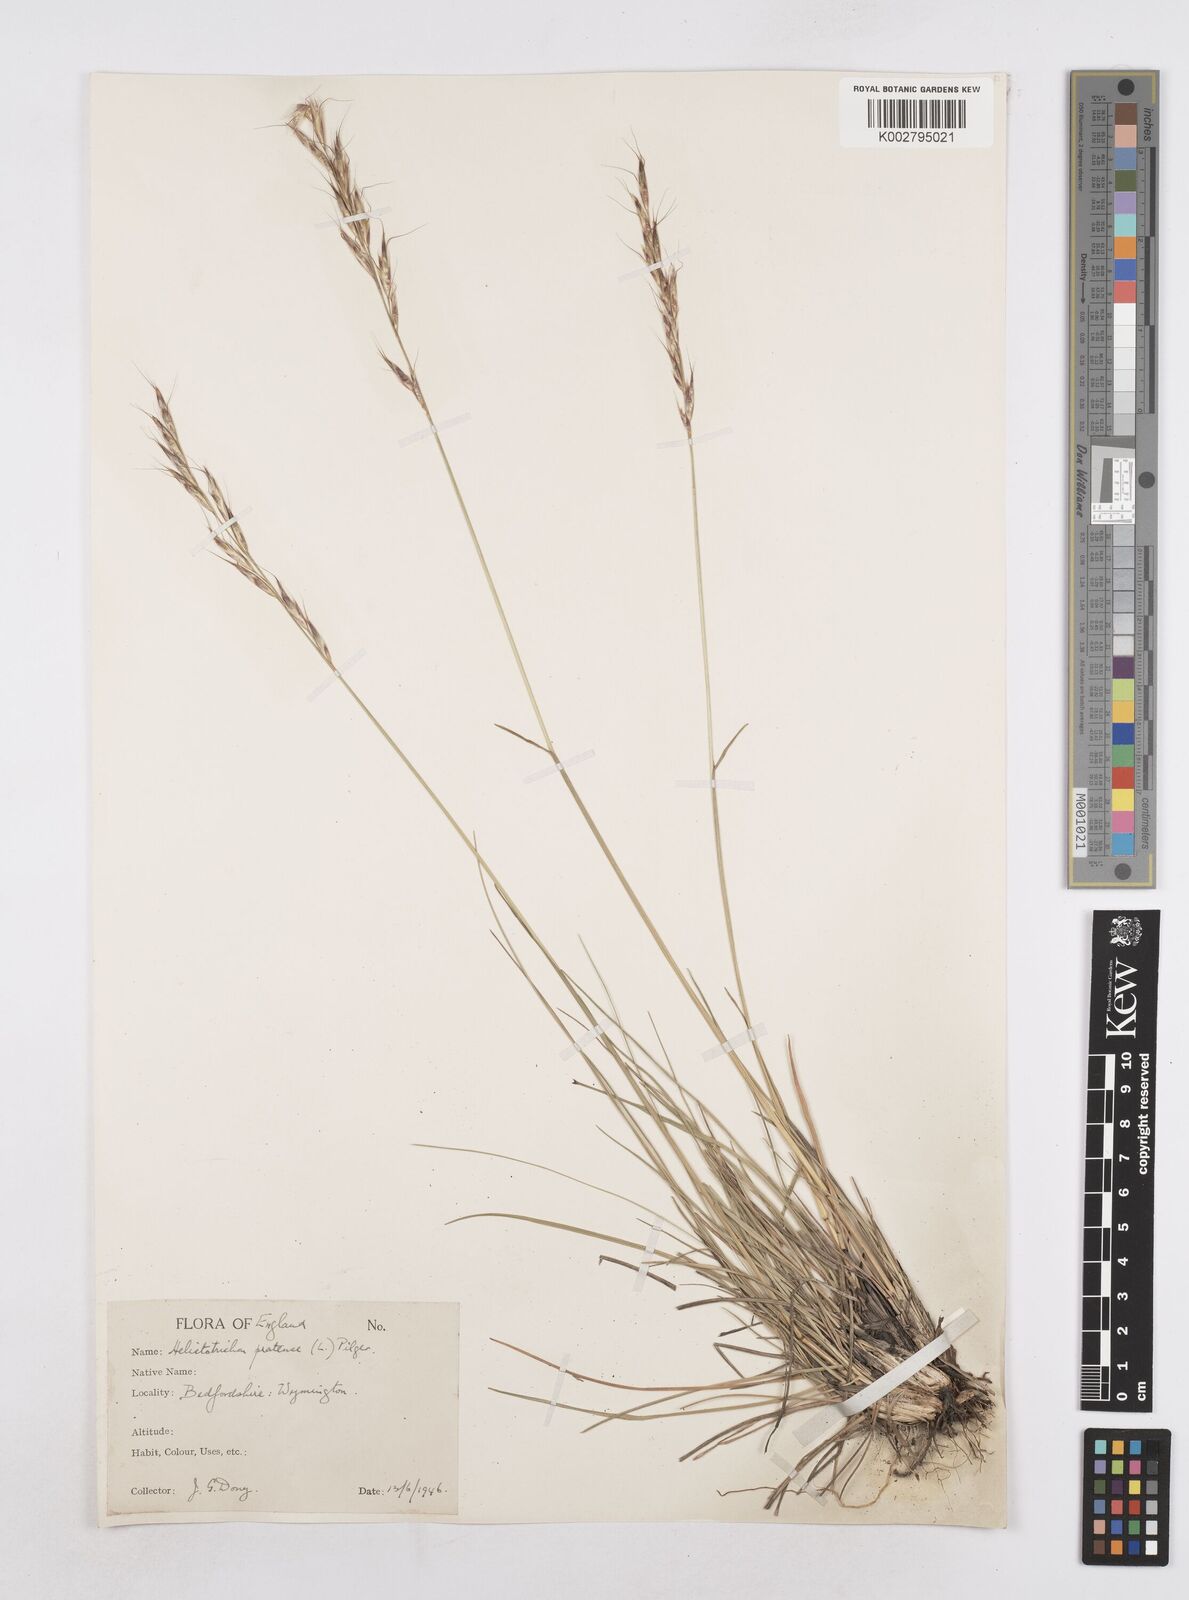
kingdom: Plantae
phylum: Tracheophyta
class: Liliopsida
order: Poales
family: Poaceae
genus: Helictochloa
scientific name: Helictochloa pratensis
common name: Meadow oat grass
